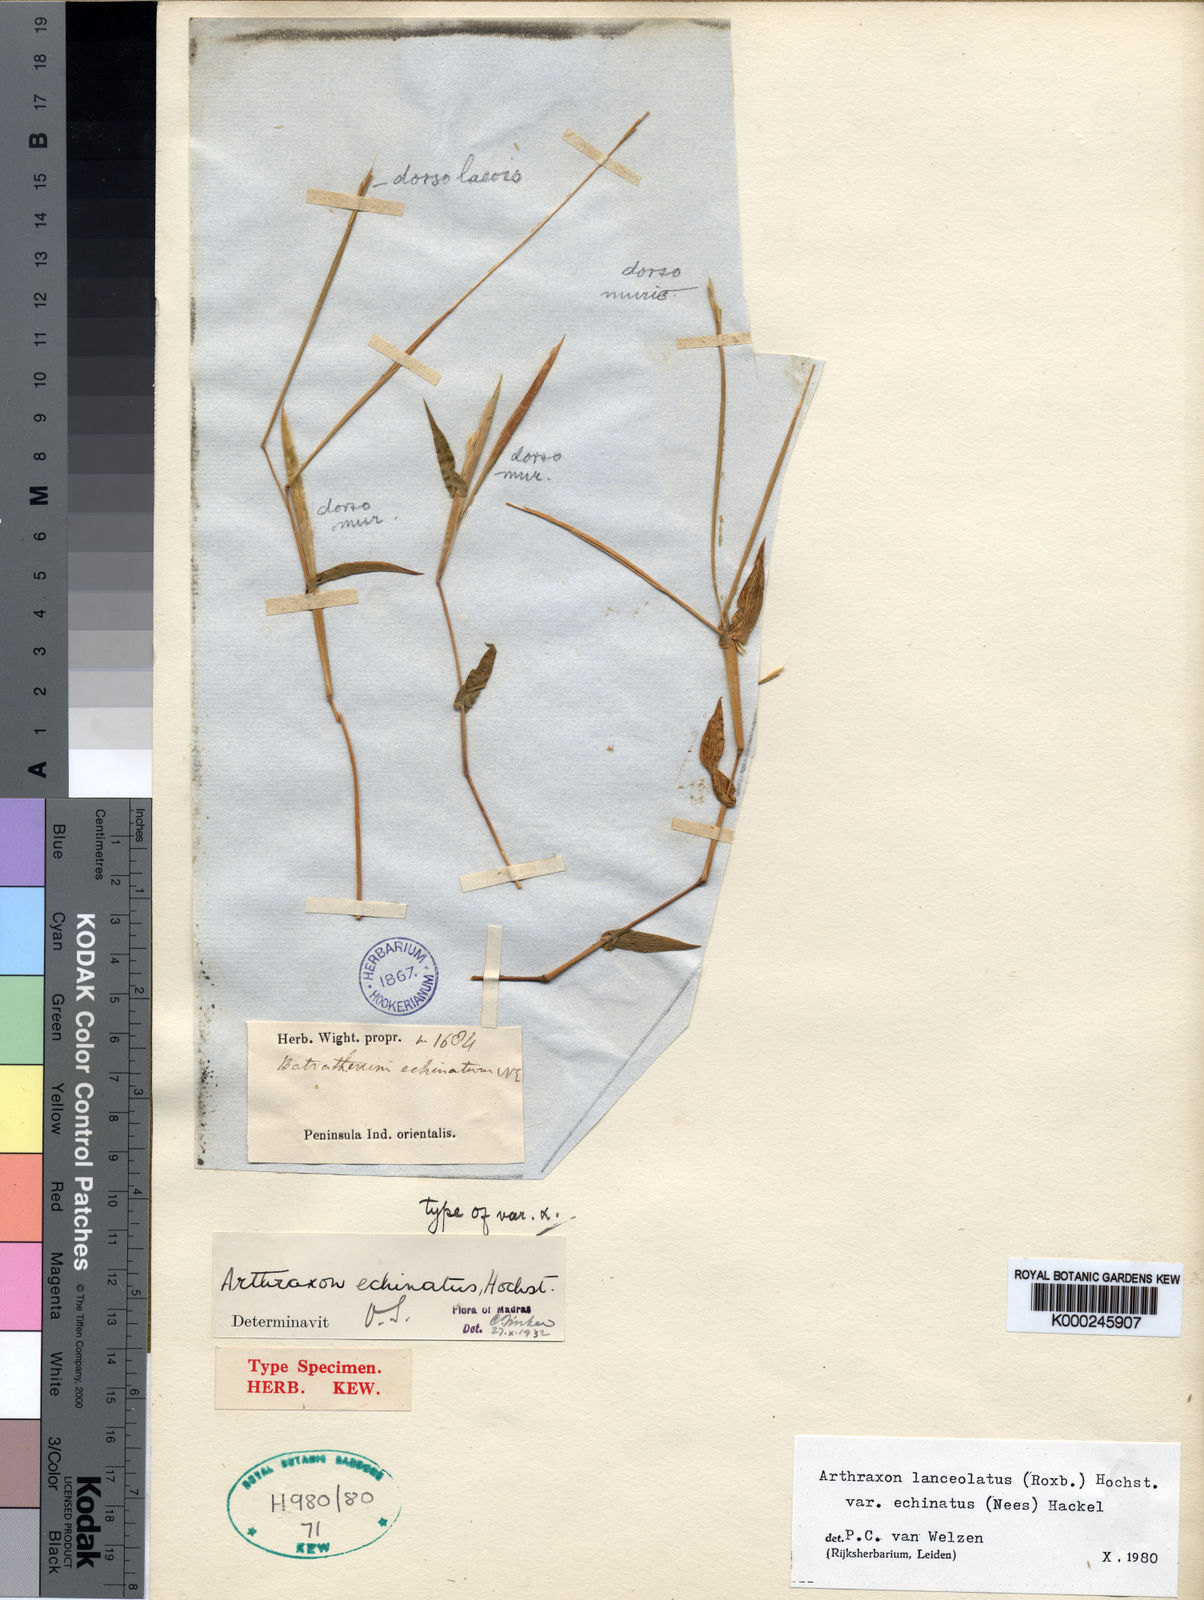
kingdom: Plantae
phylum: Tracheophyta
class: Liliopsida
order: Poales
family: Poaceae
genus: Arthraxon
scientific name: Arthraxon echinatus
